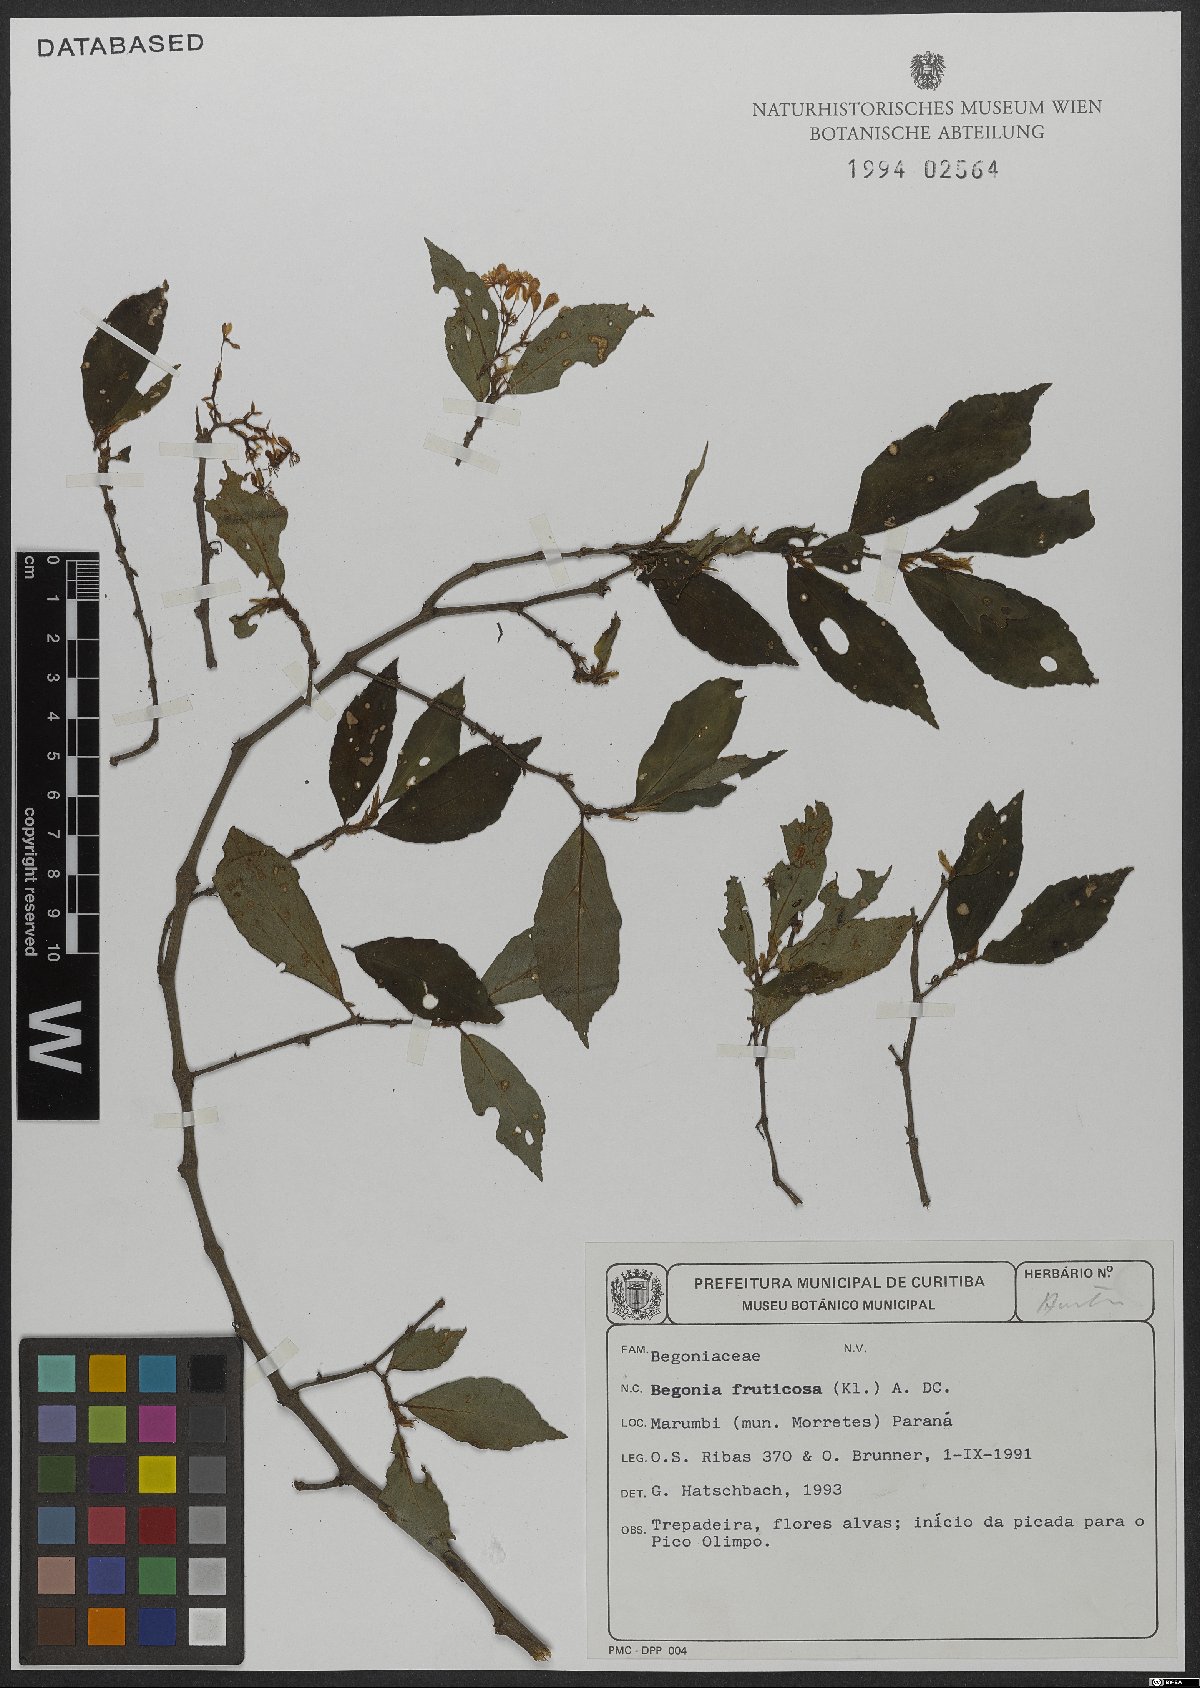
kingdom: Plantae
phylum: Tracheophyta
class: Magnoliopsida
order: Cucurbitales
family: Begoniaceae
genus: Begonia
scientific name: Begonia fruticosa
